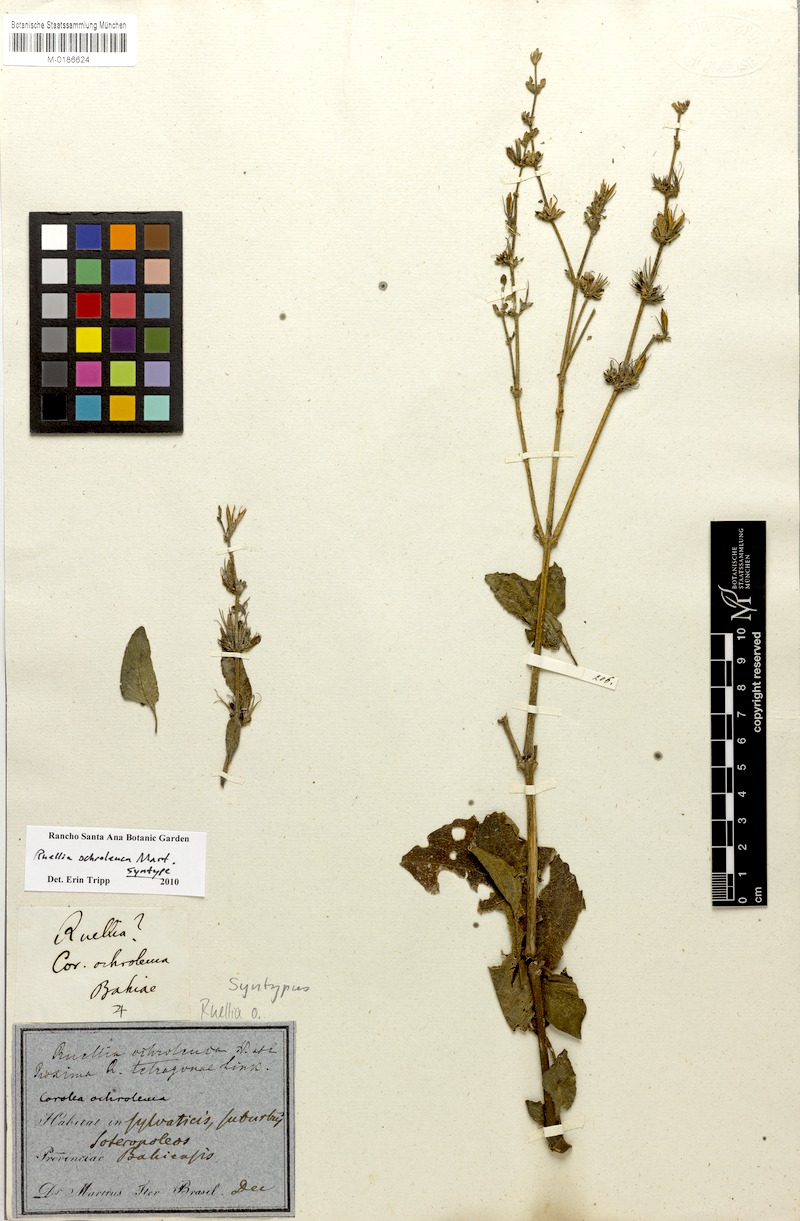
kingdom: Plantae
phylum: Tracheophyta
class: Magnoliopsida
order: Lamiales
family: Acanthaceae
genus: Ruellia
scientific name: Ruellia ochroleuca
